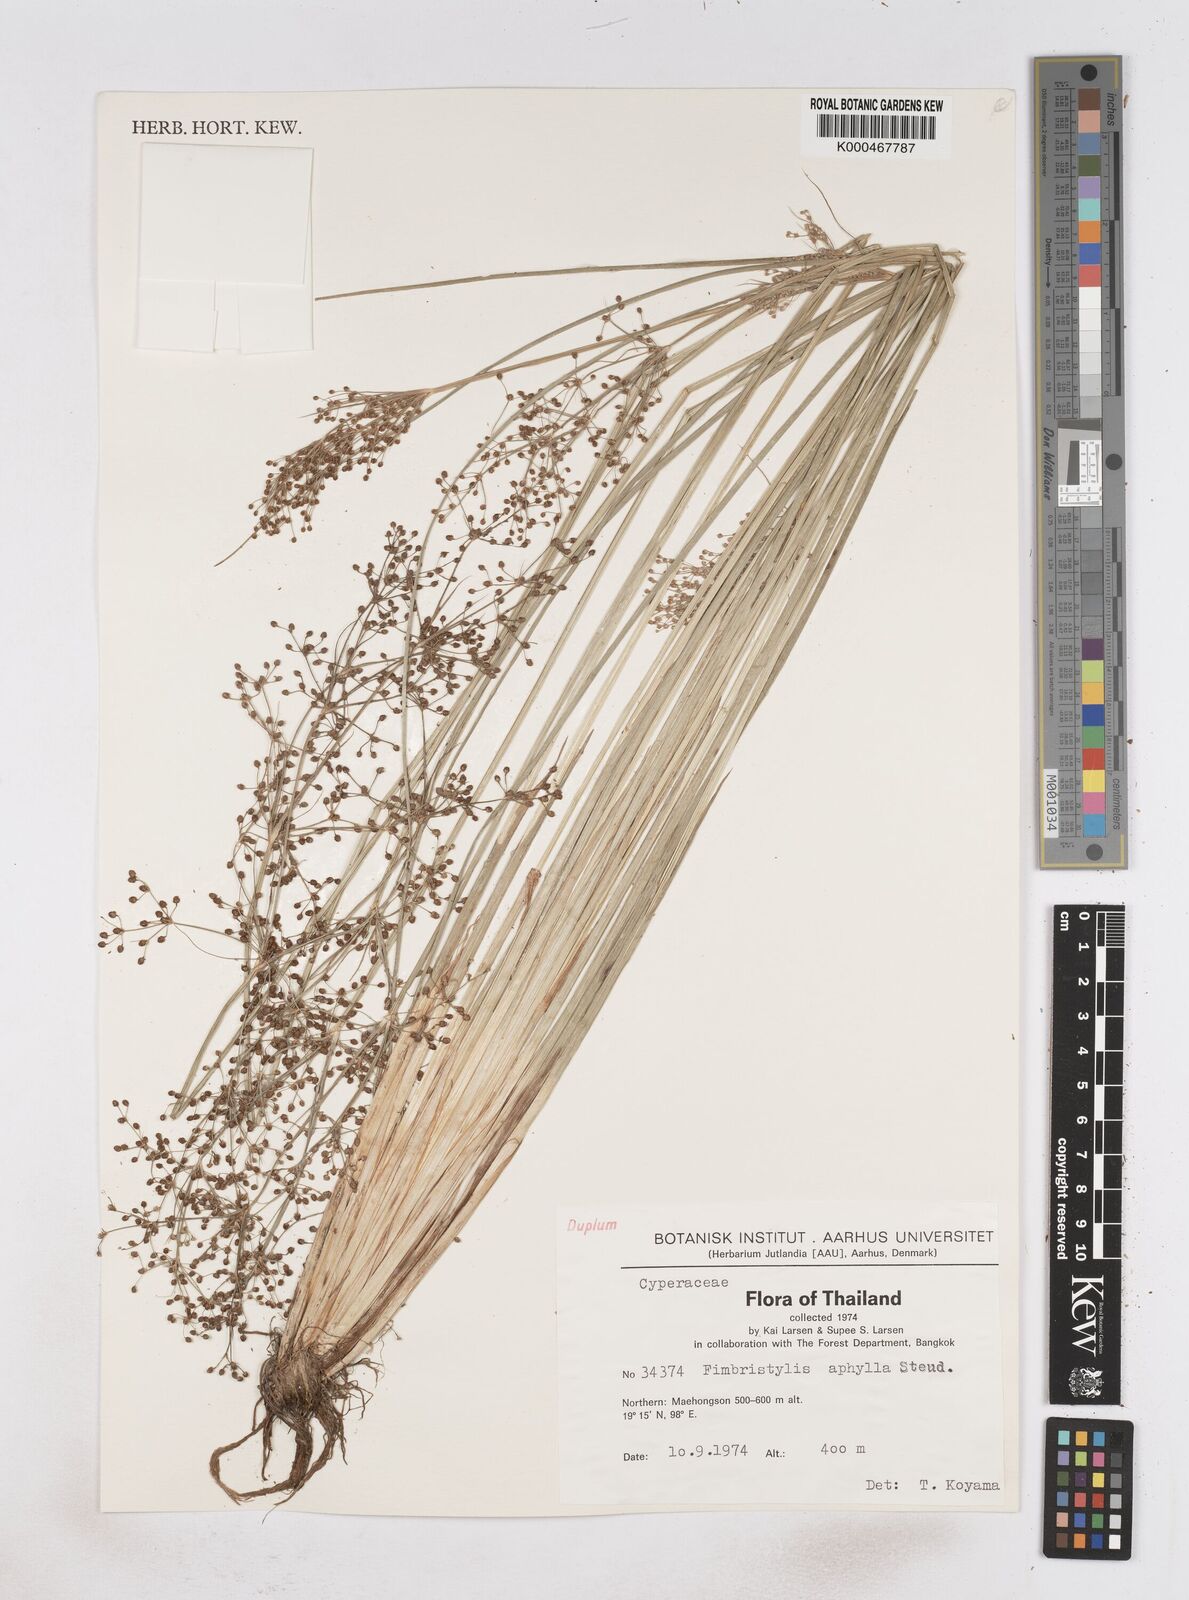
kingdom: Plantae
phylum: Tracheophyta
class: Liliopsida
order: Poales
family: Cyperaceae
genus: Fimbristylis
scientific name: Fimbristylis aphylla
